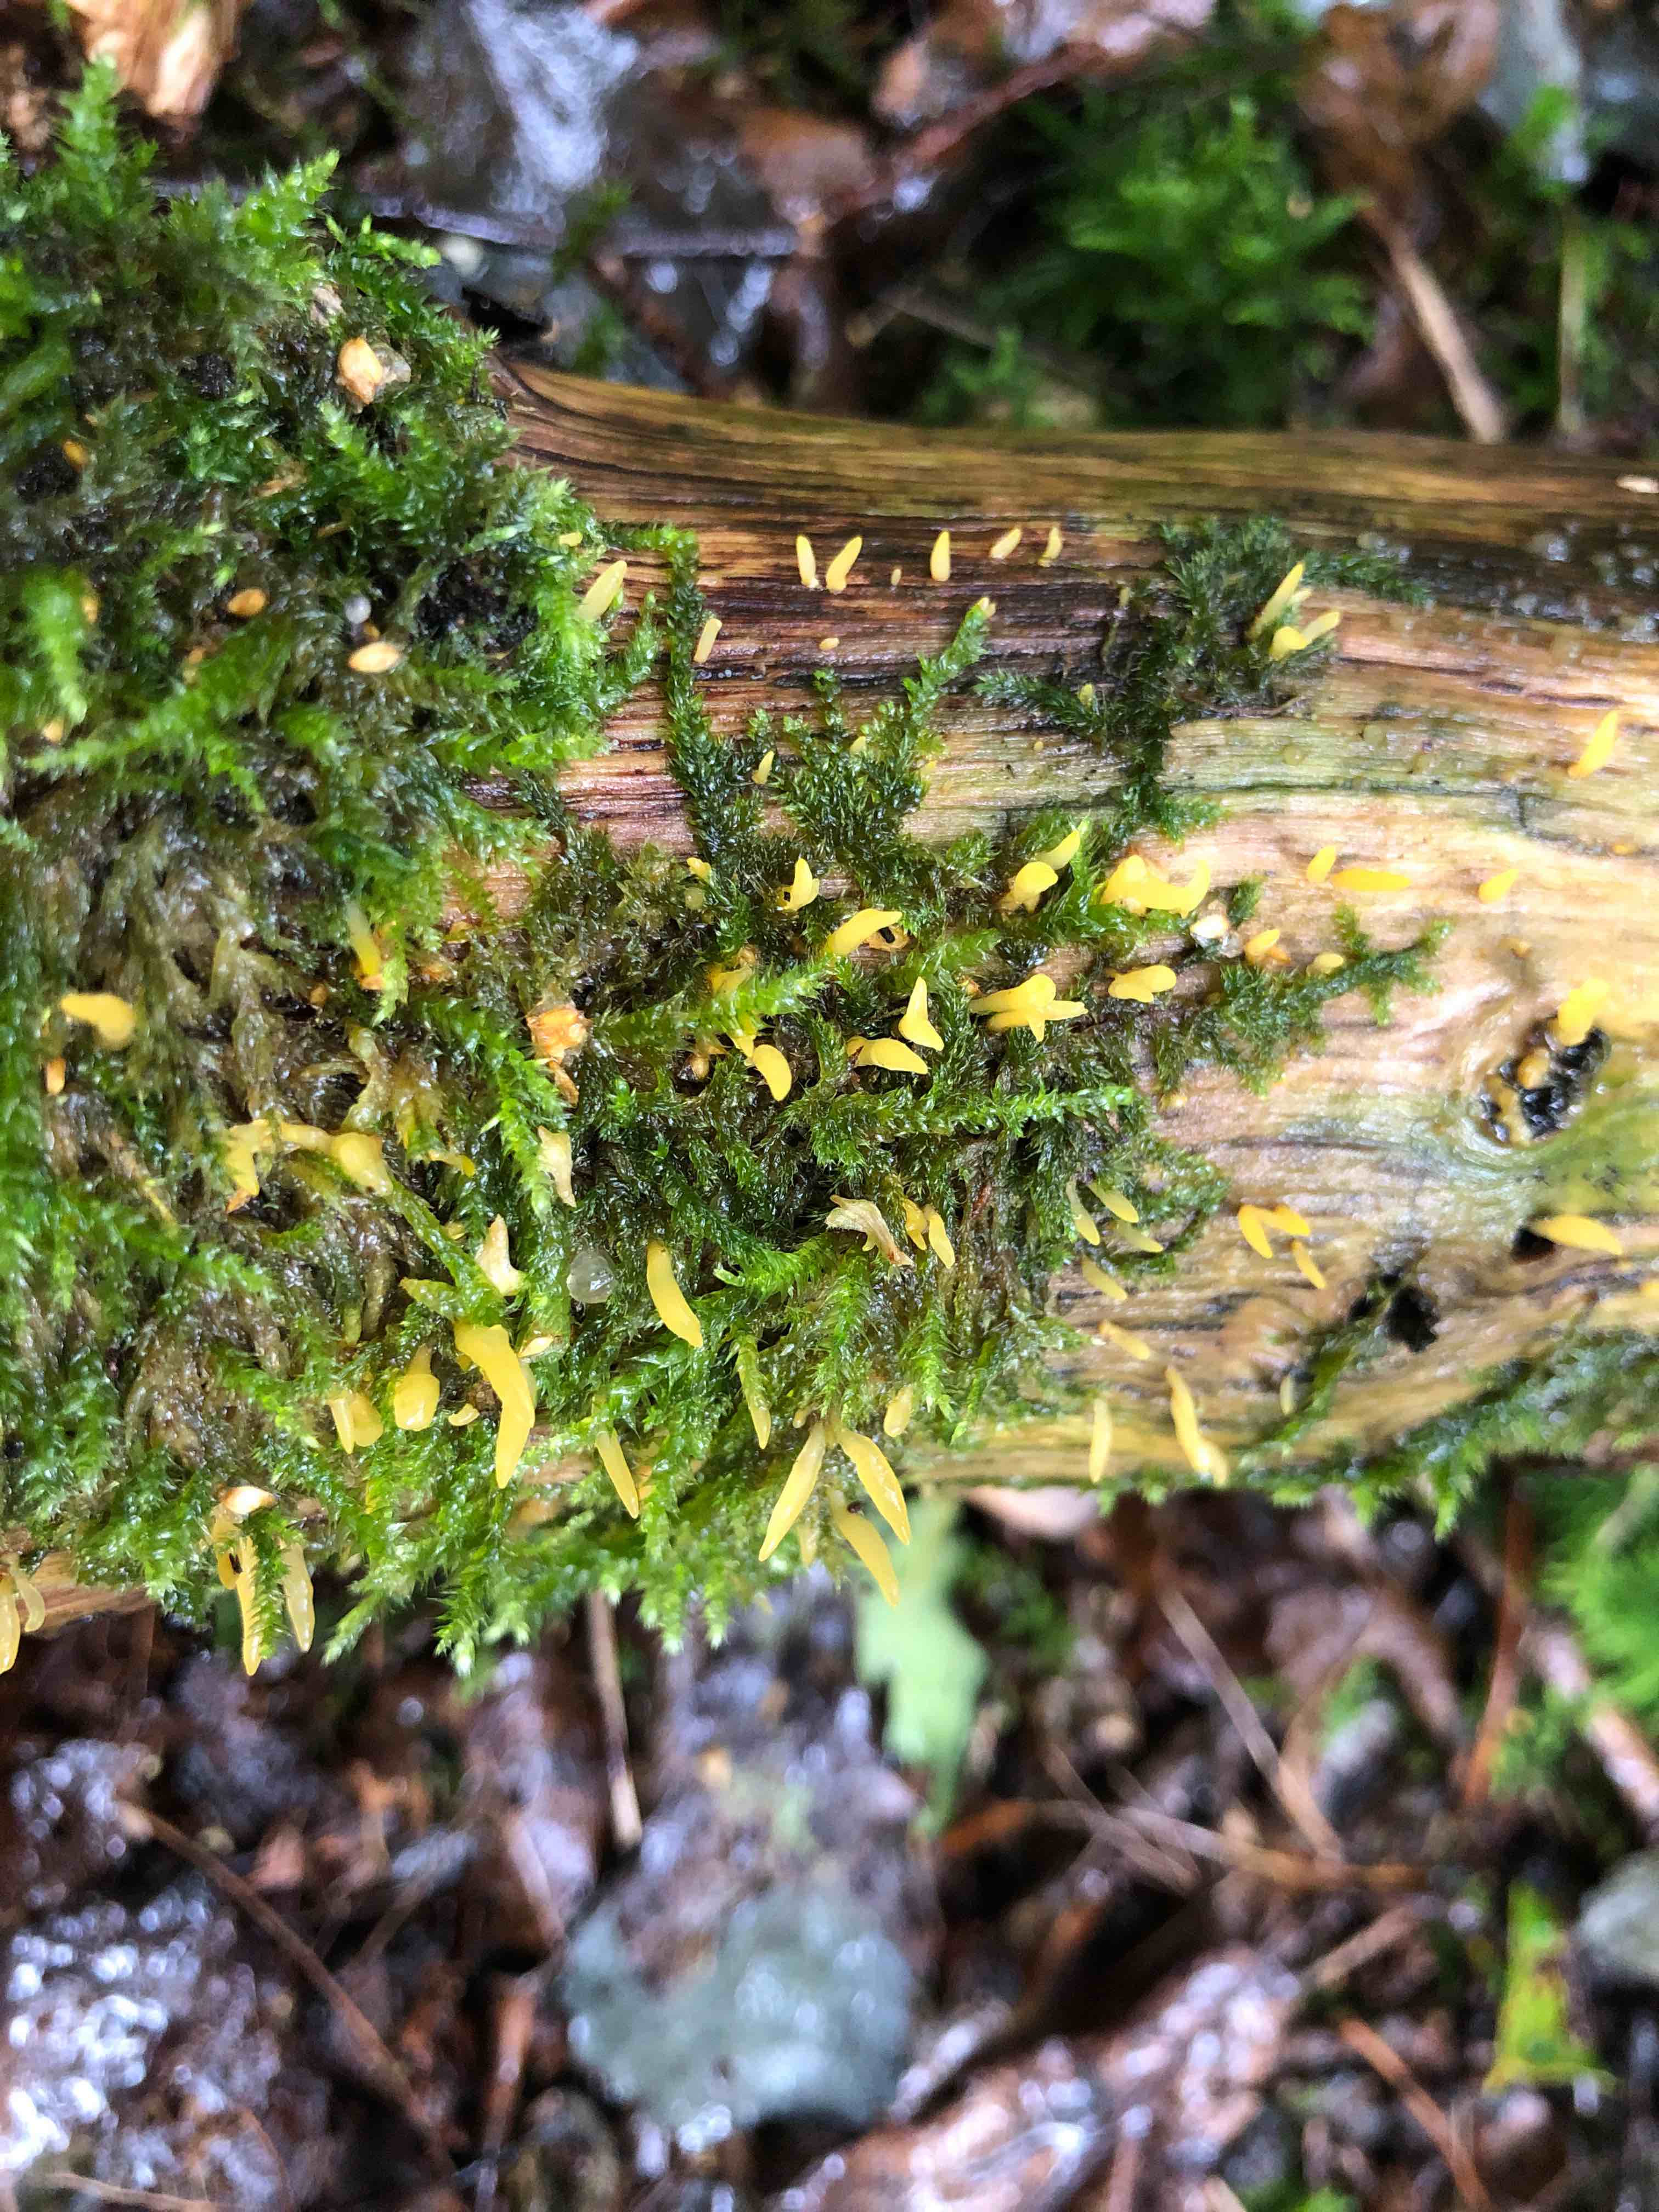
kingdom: Fungi
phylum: Basidiomycota
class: Dacrymycetes
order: Dacrymycetales
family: Dacrymycetaceae
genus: Calocera
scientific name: Calocera cornea
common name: liden guldgaffel
